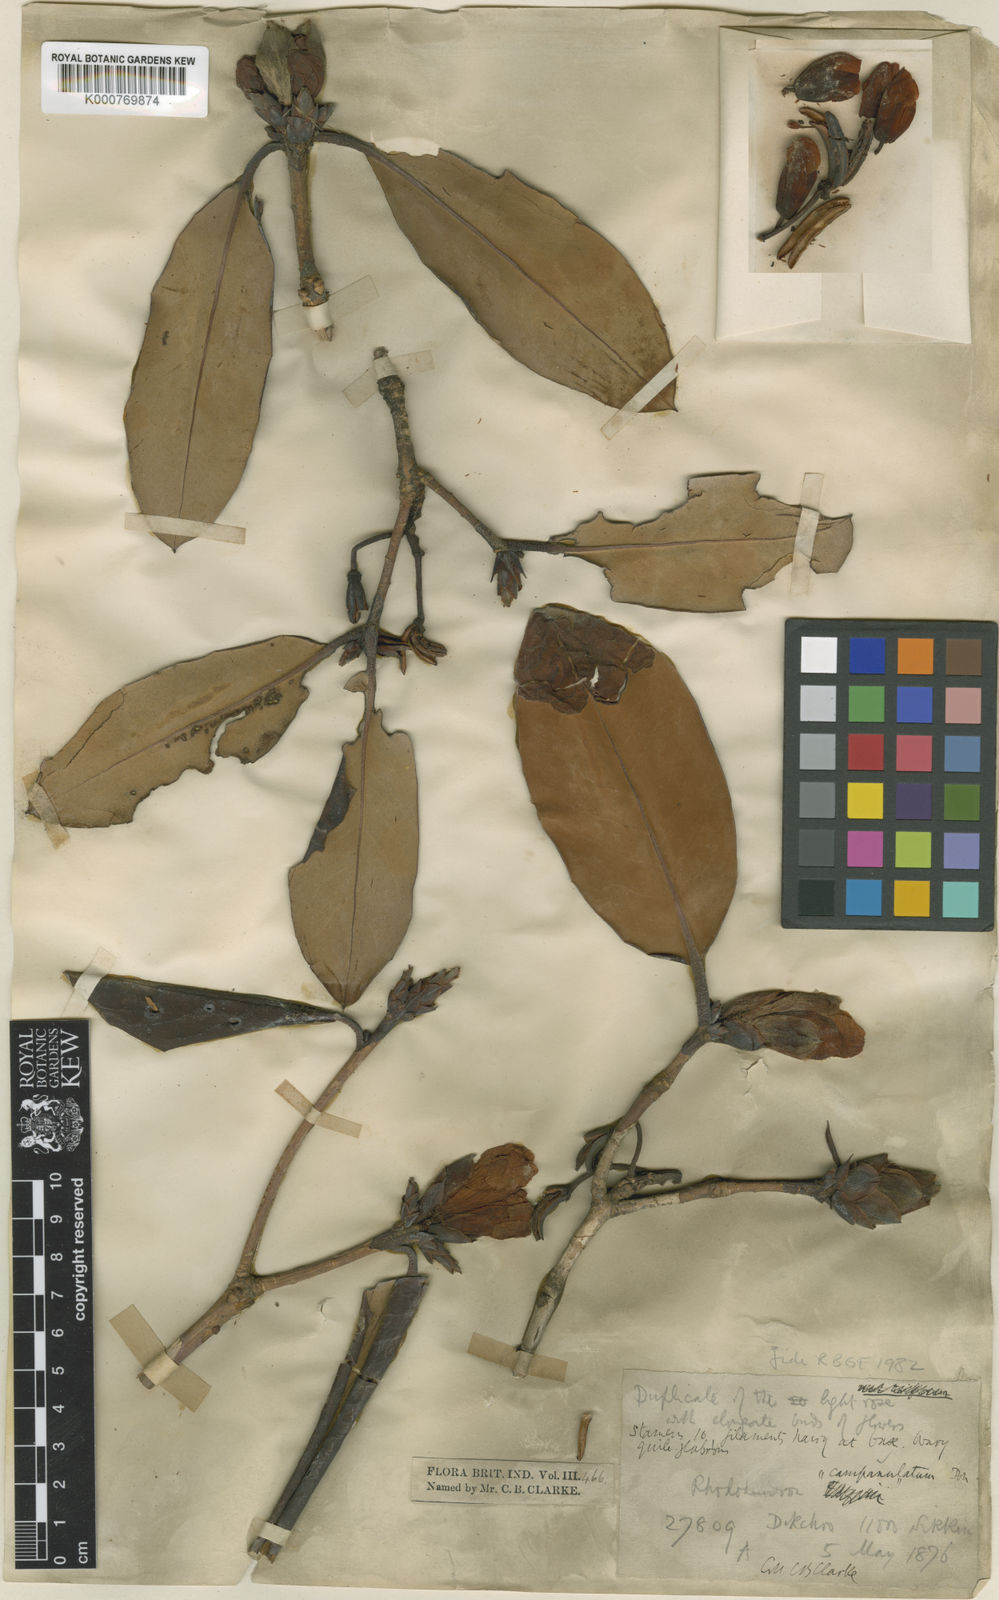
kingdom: Plantae
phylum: Tracheophyta
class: Magnoliopsida
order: Ericales
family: Ericaceae
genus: Rhododendron
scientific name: Rhododendron
